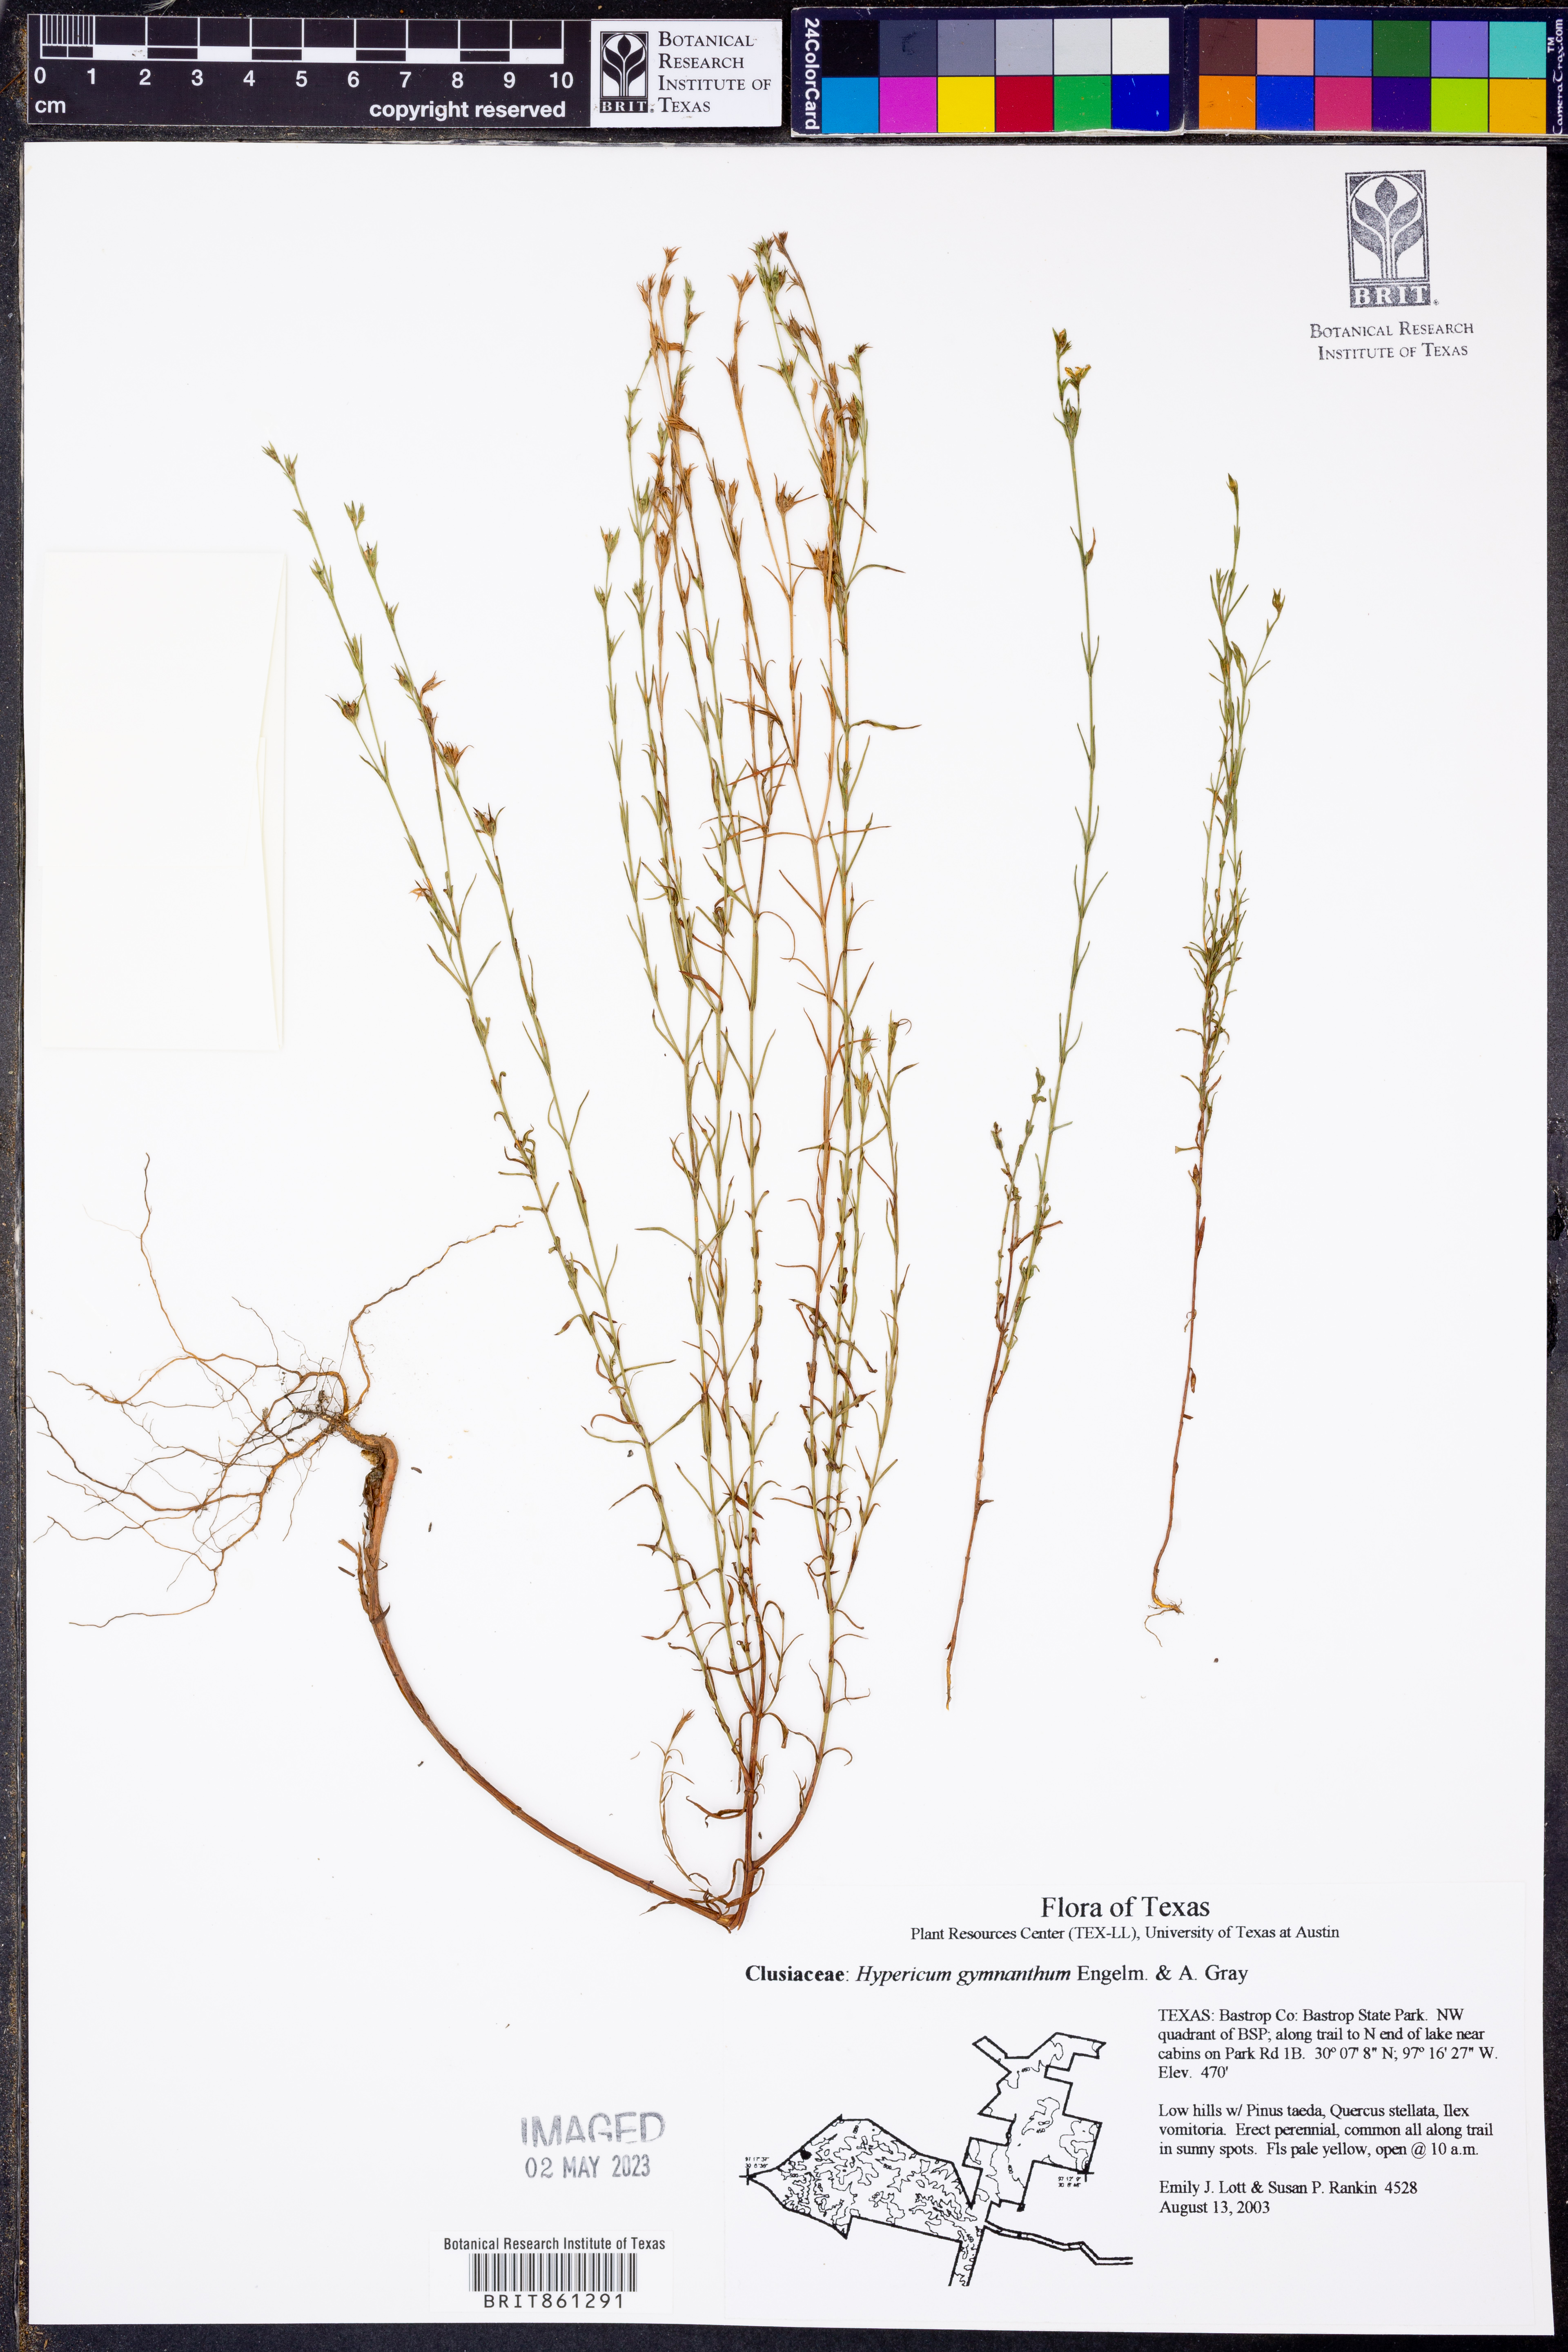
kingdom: Plantae
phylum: Tracheophyta
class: Magnoliopsida
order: Malpighiales
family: Hypericaceae
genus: Hypericum
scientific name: Hypericum gymnanthum
